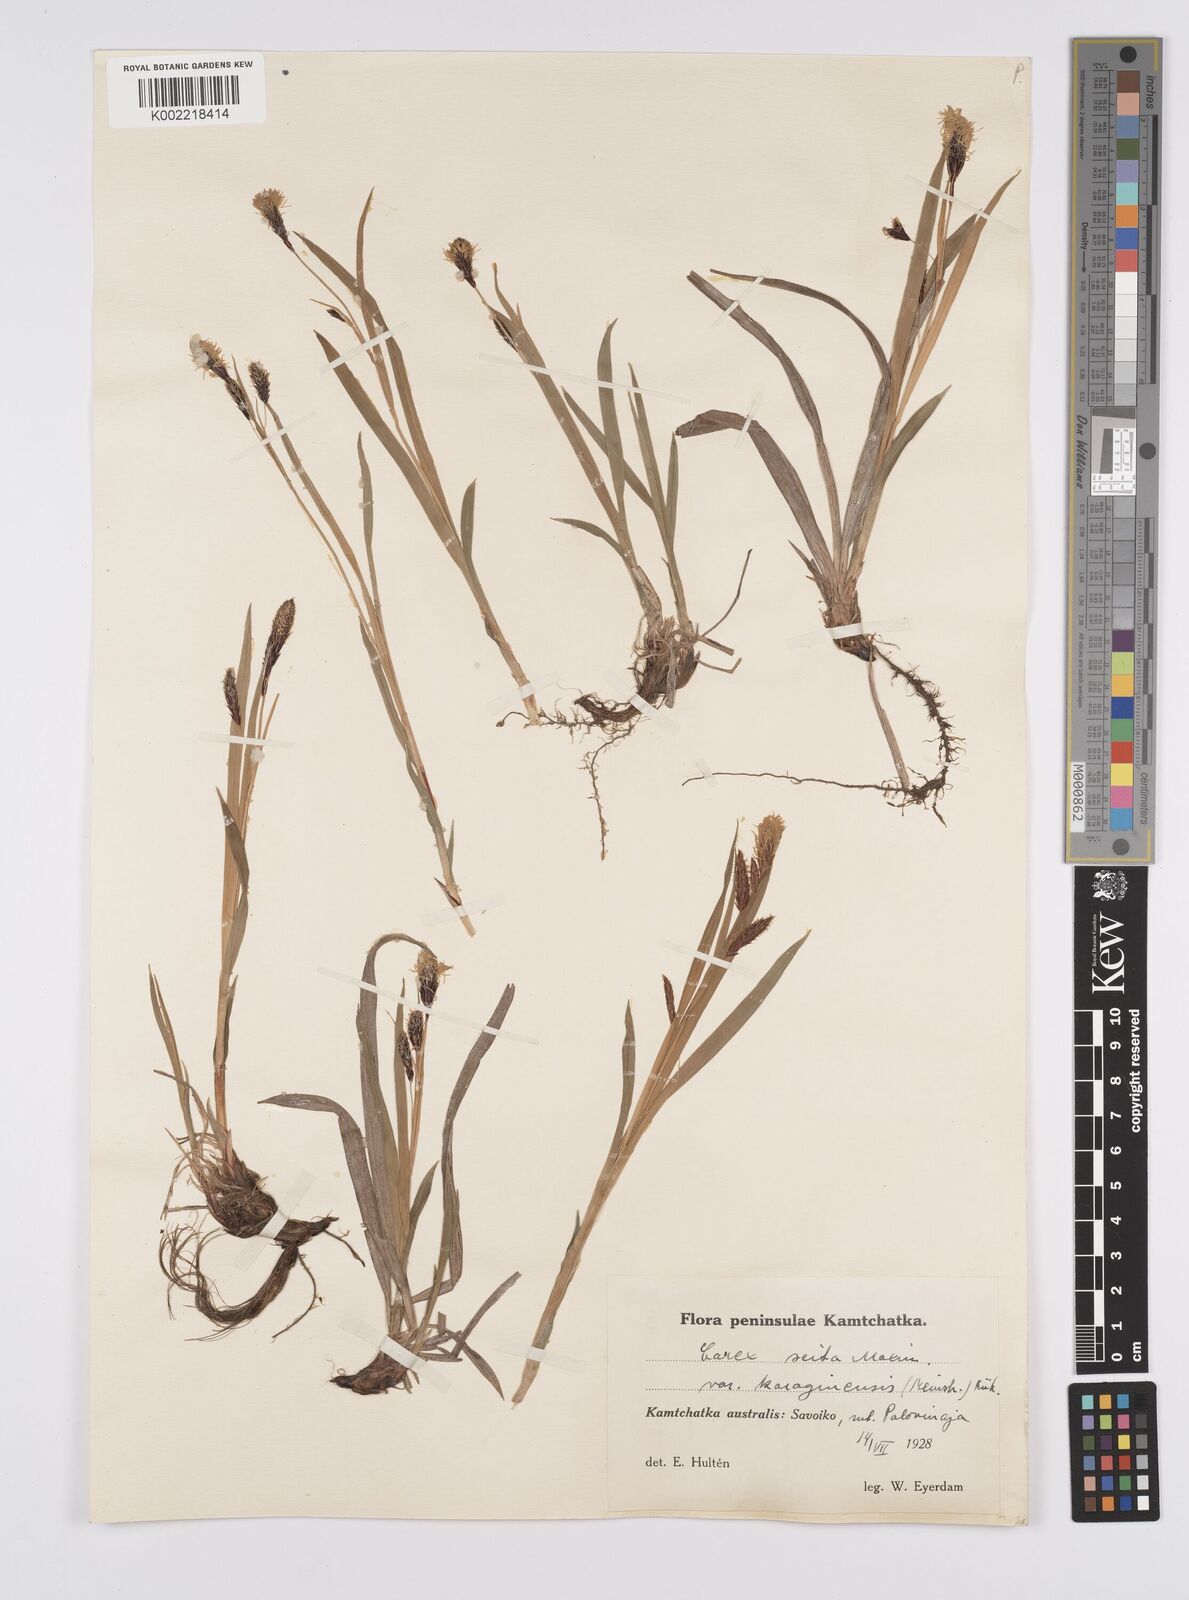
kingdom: Plantae
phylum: Tracheophyta
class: Liliopsida
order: Poales
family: Cyperaceae
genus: Carex
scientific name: Carex scita
